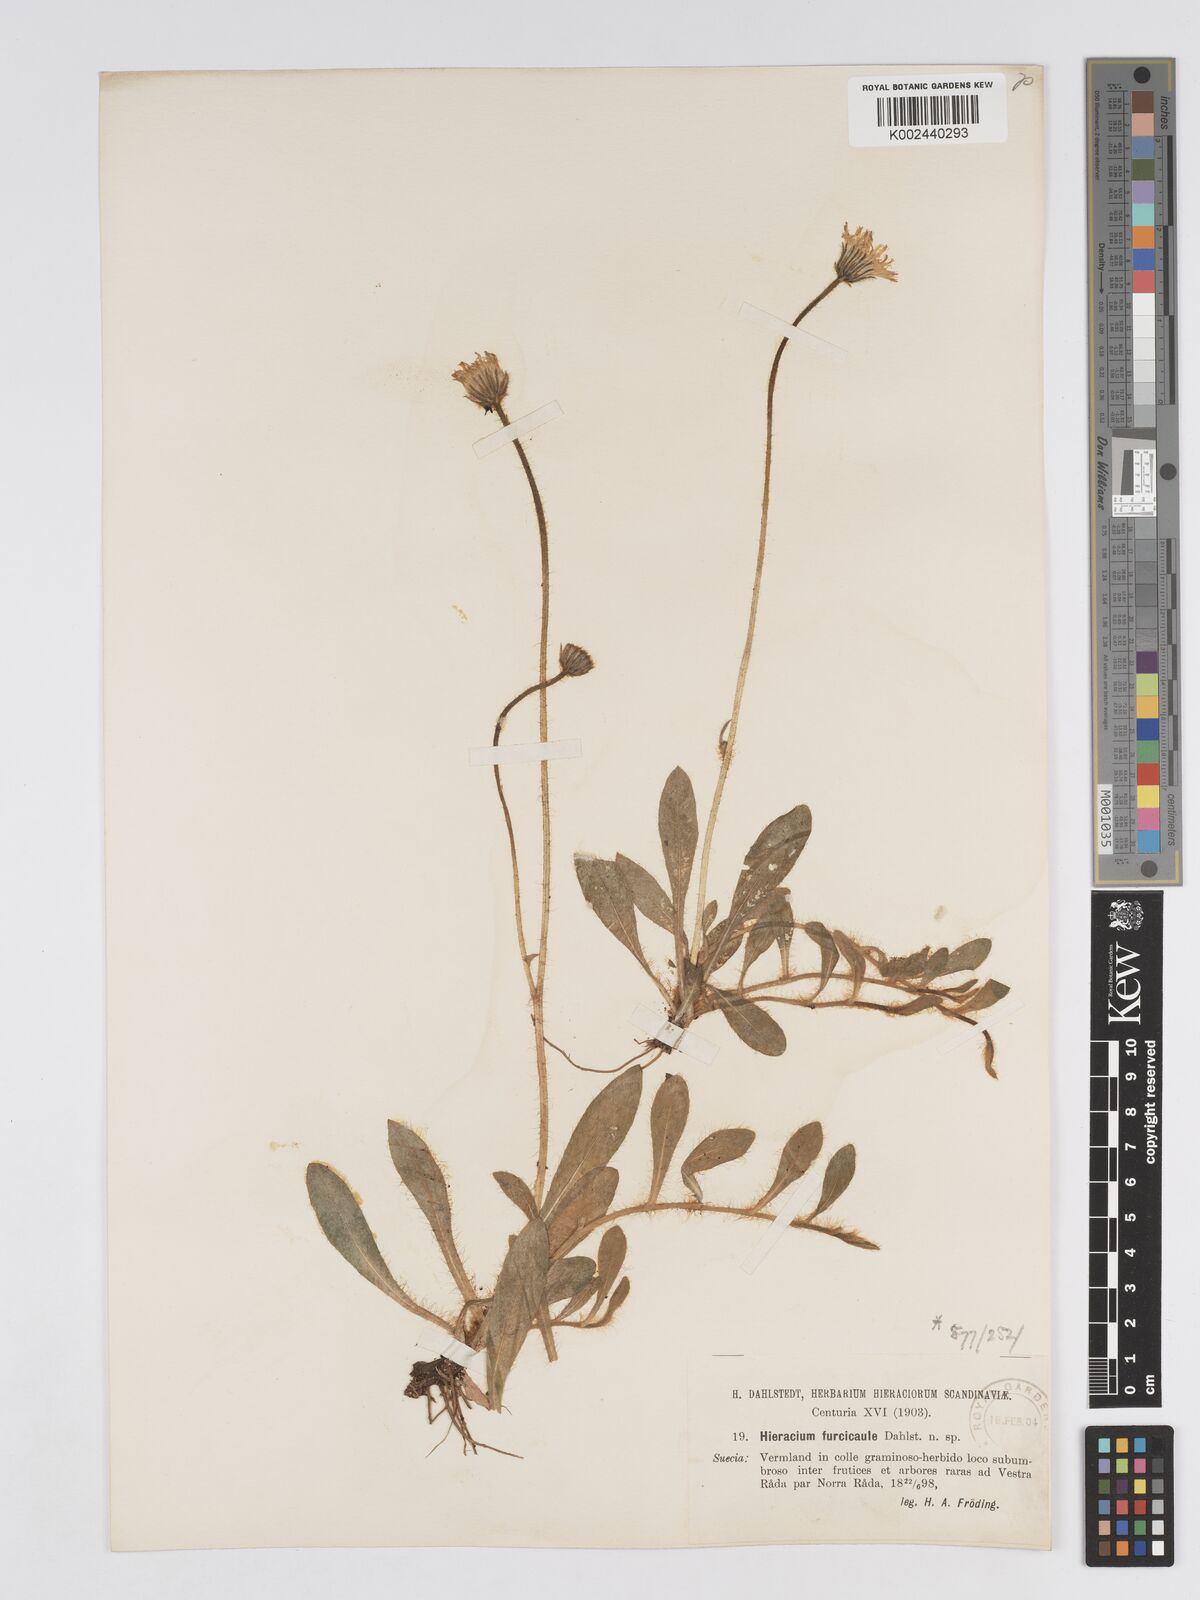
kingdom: Plantae
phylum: Tracheophyta
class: Magnoliopsida
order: Asterales
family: Asteraceae
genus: Pilosella
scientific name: Pilosella officinarum
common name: Mouse-ear hawkweed
